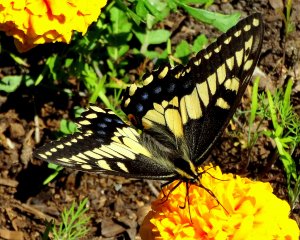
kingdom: Animalia
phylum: Arthropoda
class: Insecta
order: Lepidoptera
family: Papilionidae
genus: Papilio
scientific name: Papilio zelicaon
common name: Anise Swallowtail
